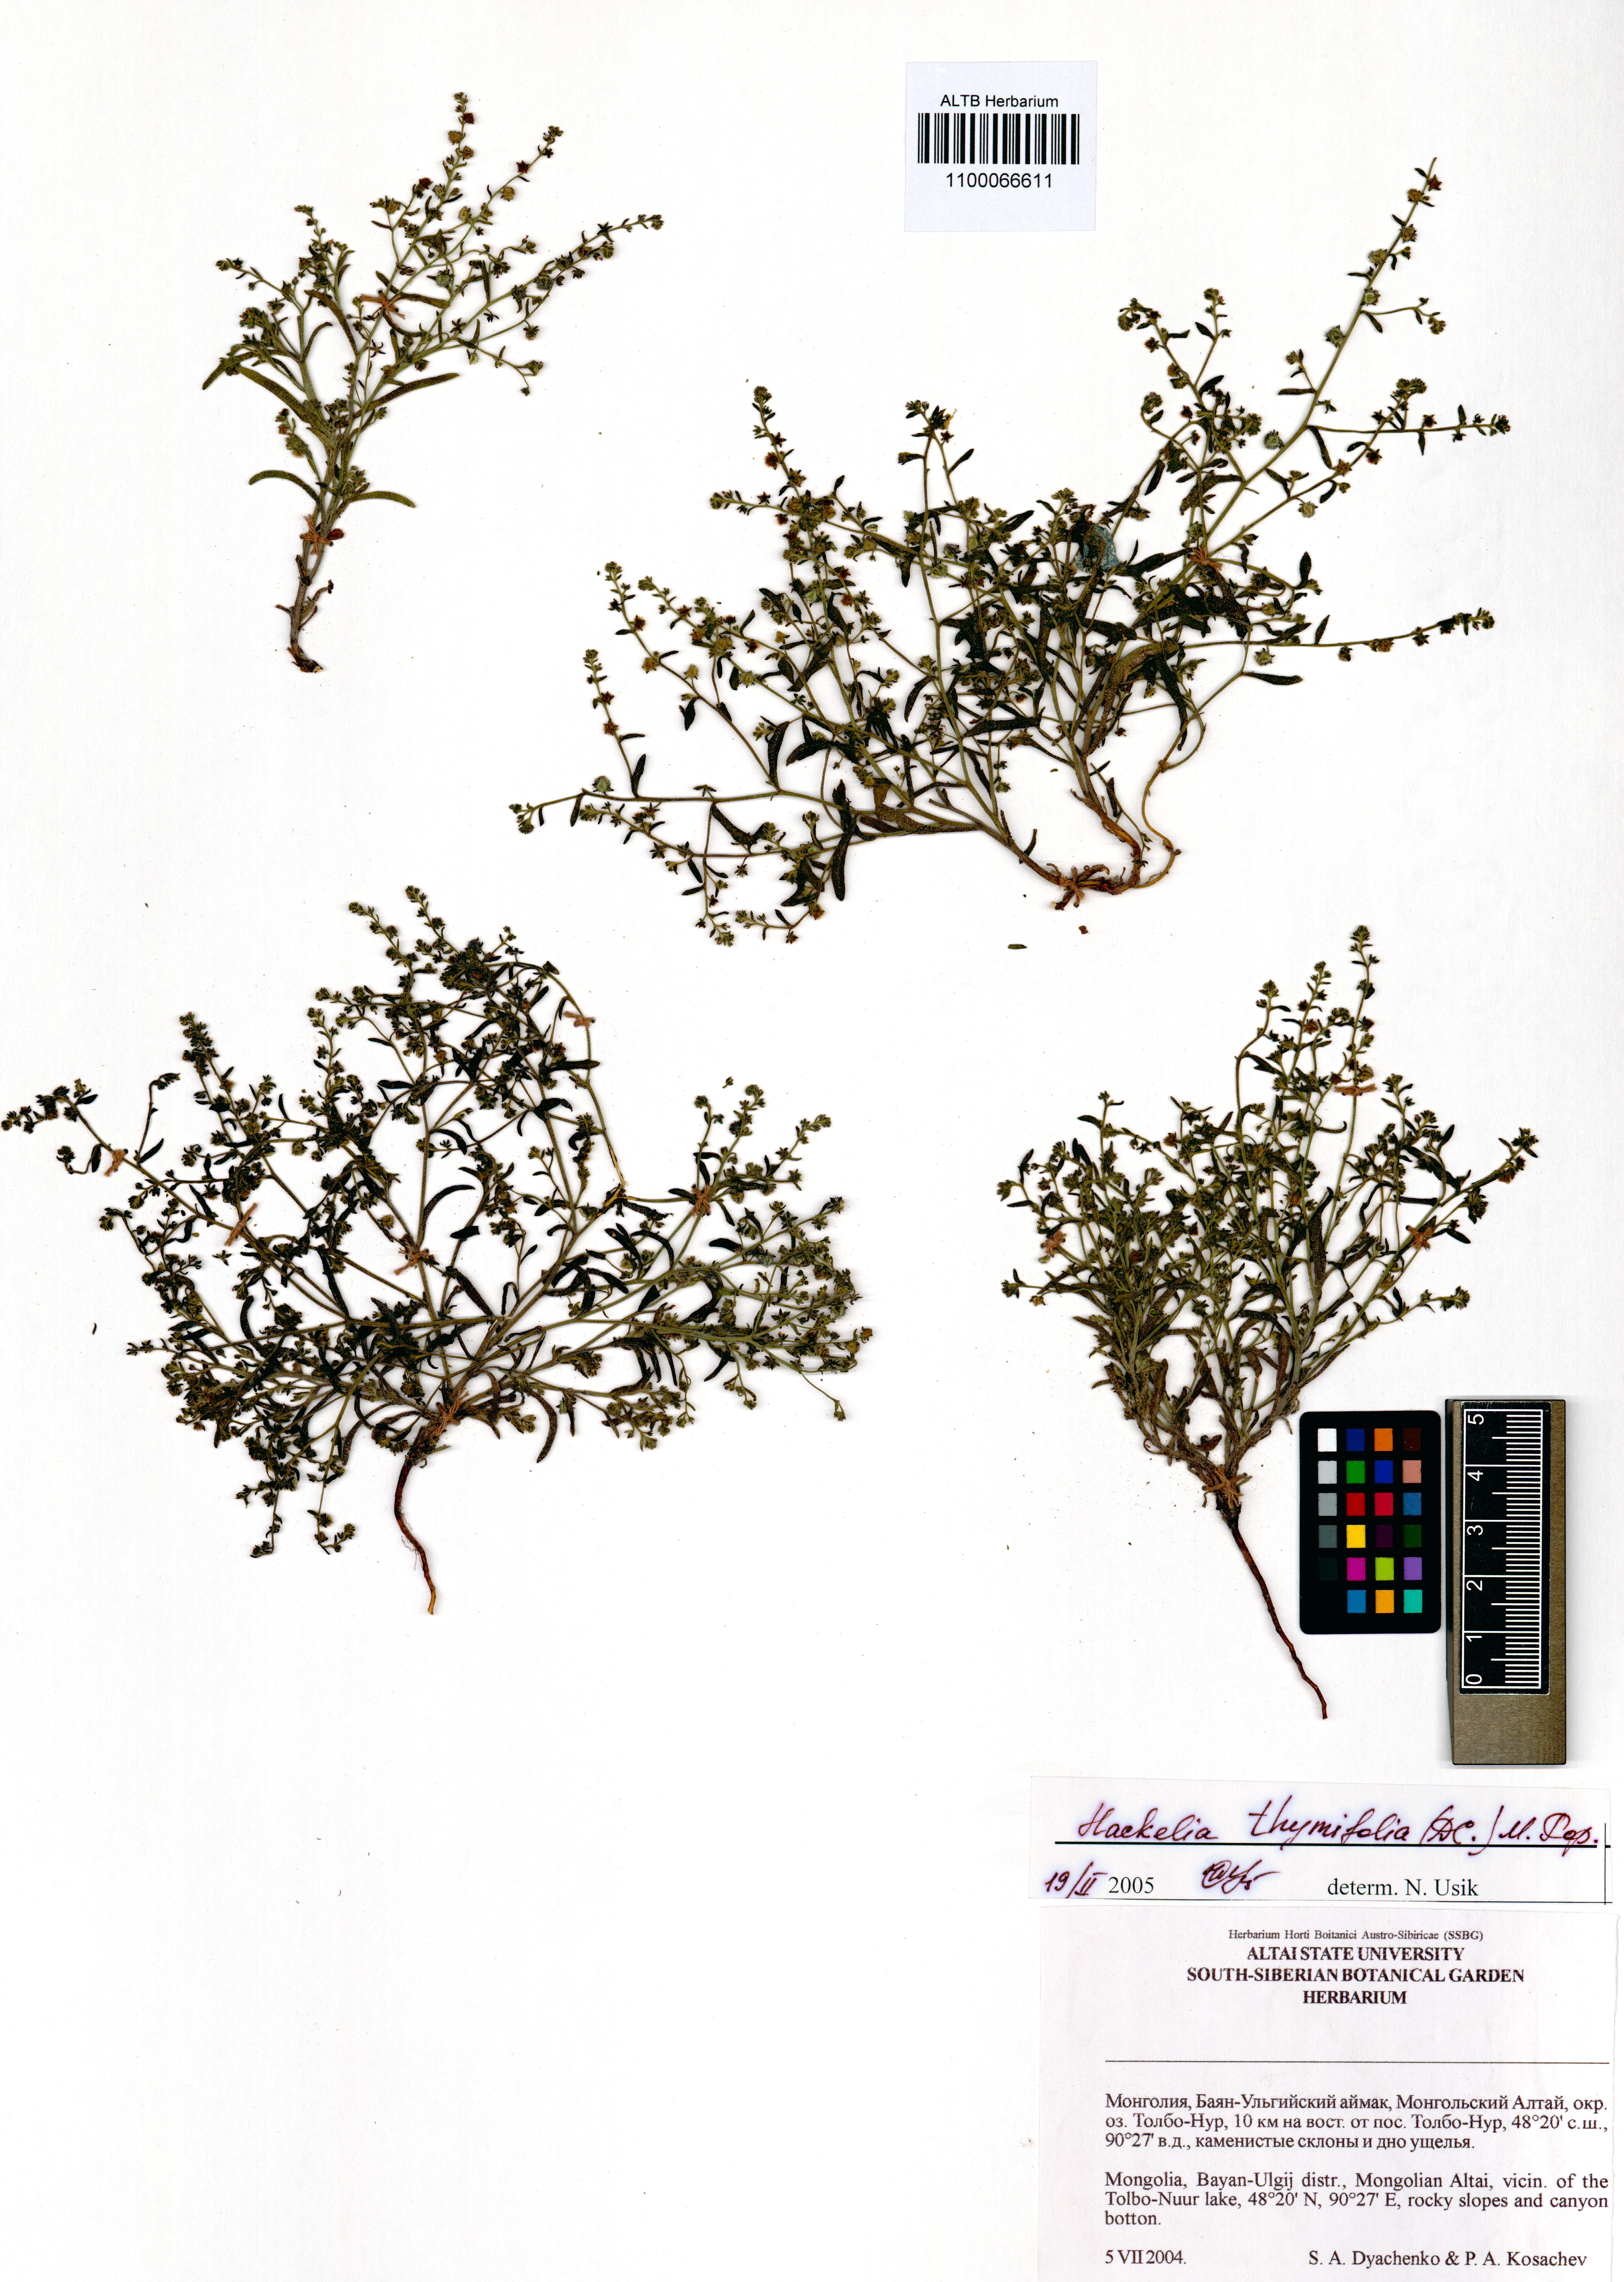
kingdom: Plantae
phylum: Tracheophyta
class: Magnoliopsida
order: Boraginales
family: Boraginaceae
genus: Eritrichium
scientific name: Eritrichium thymifolium
